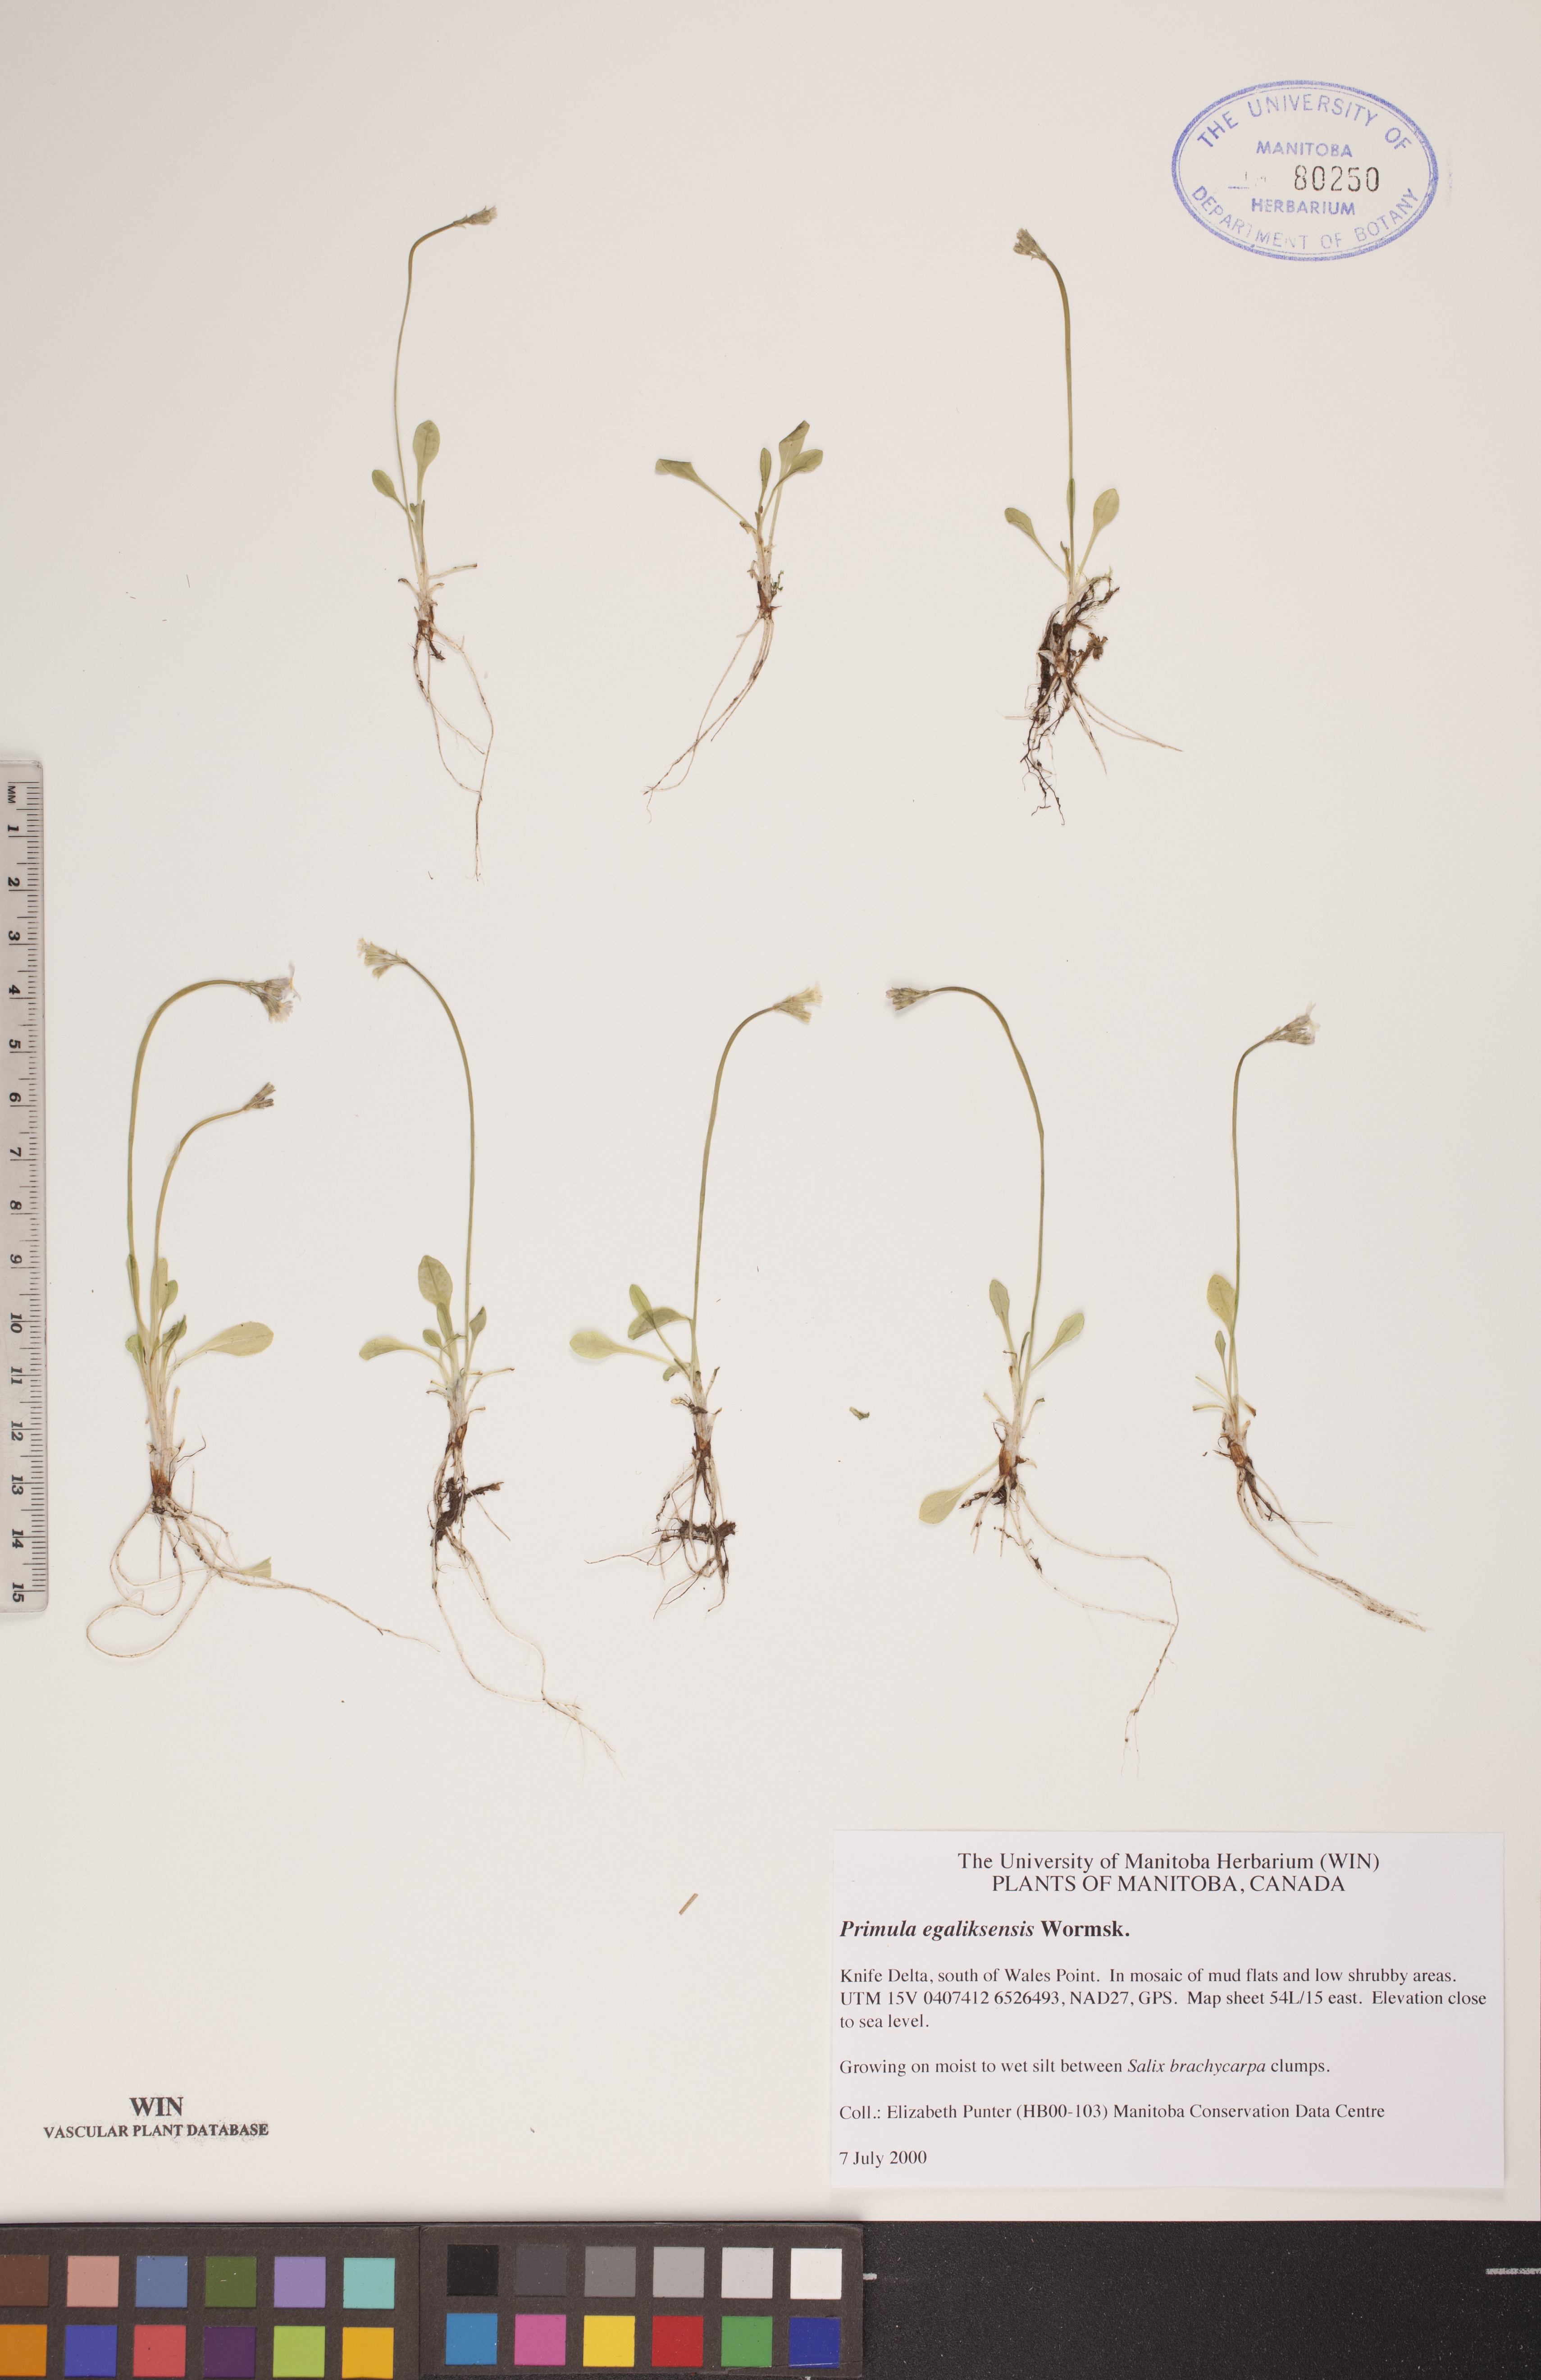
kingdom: Plantae
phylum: Tracheophyta
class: Magnoliopsida
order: Ericales
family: Primulaceae
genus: Primula
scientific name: Primula egaliksensis
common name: Greenland primrose
